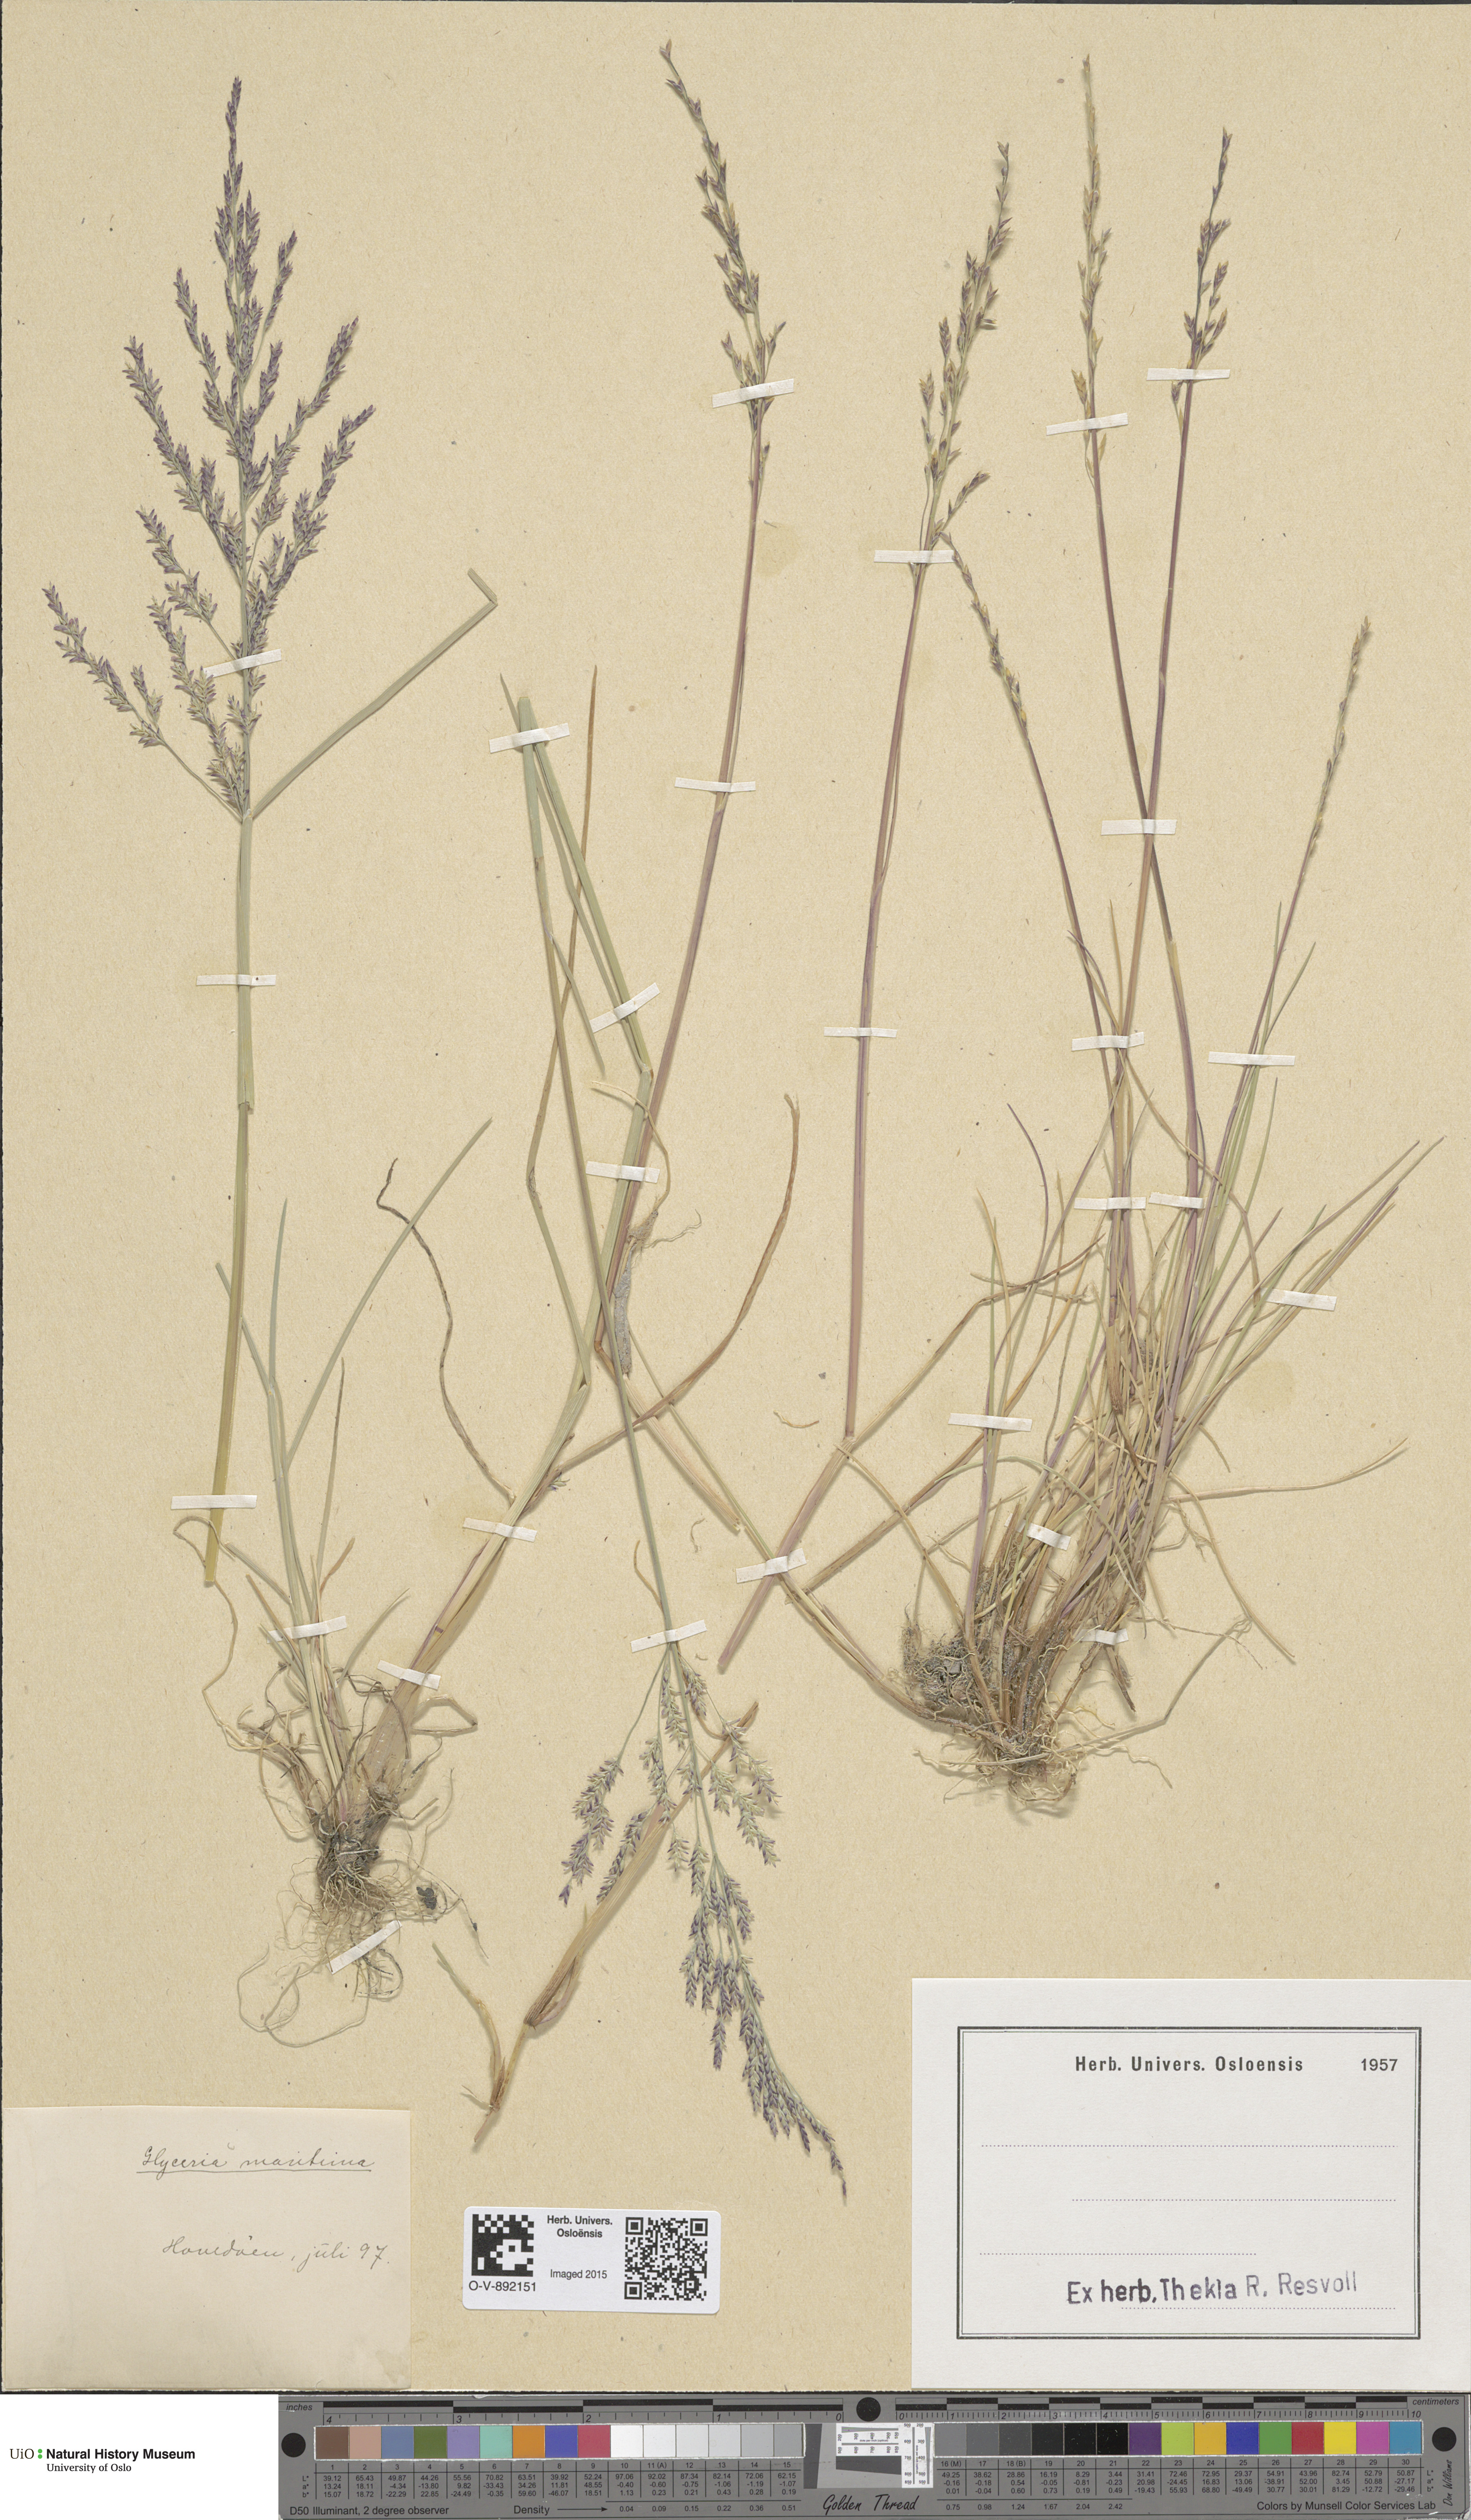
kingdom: Plantae
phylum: Tracheophyta
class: Liliopsida
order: Poales
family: Poaceae
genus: Puccinellia
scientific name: Puccinellia maritima
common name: Common saltmarsh grass
